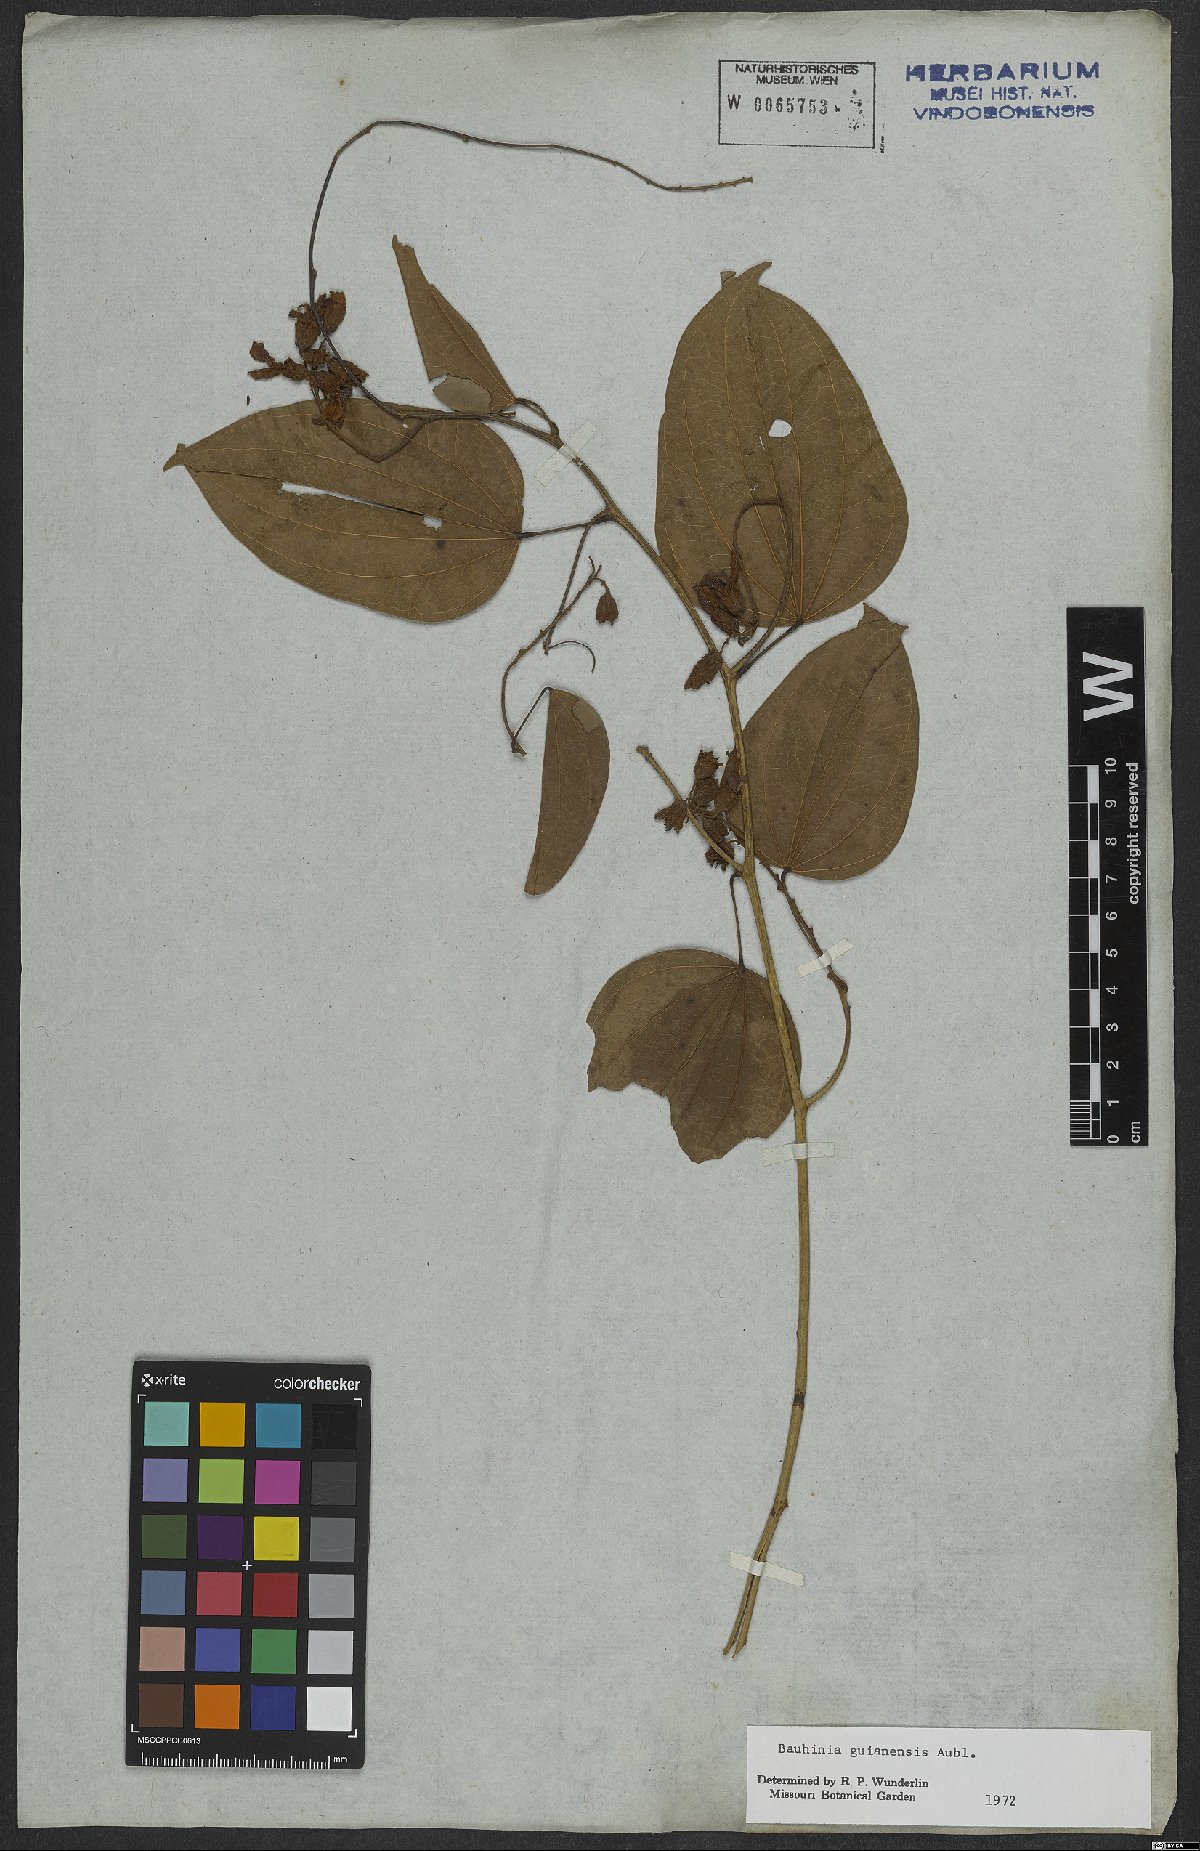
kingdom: Plantae
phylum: Tracheophyta
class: Magnoliopsida
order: Fabales
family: Fabaceae
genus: Schnella
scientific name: Schnella guianensis
